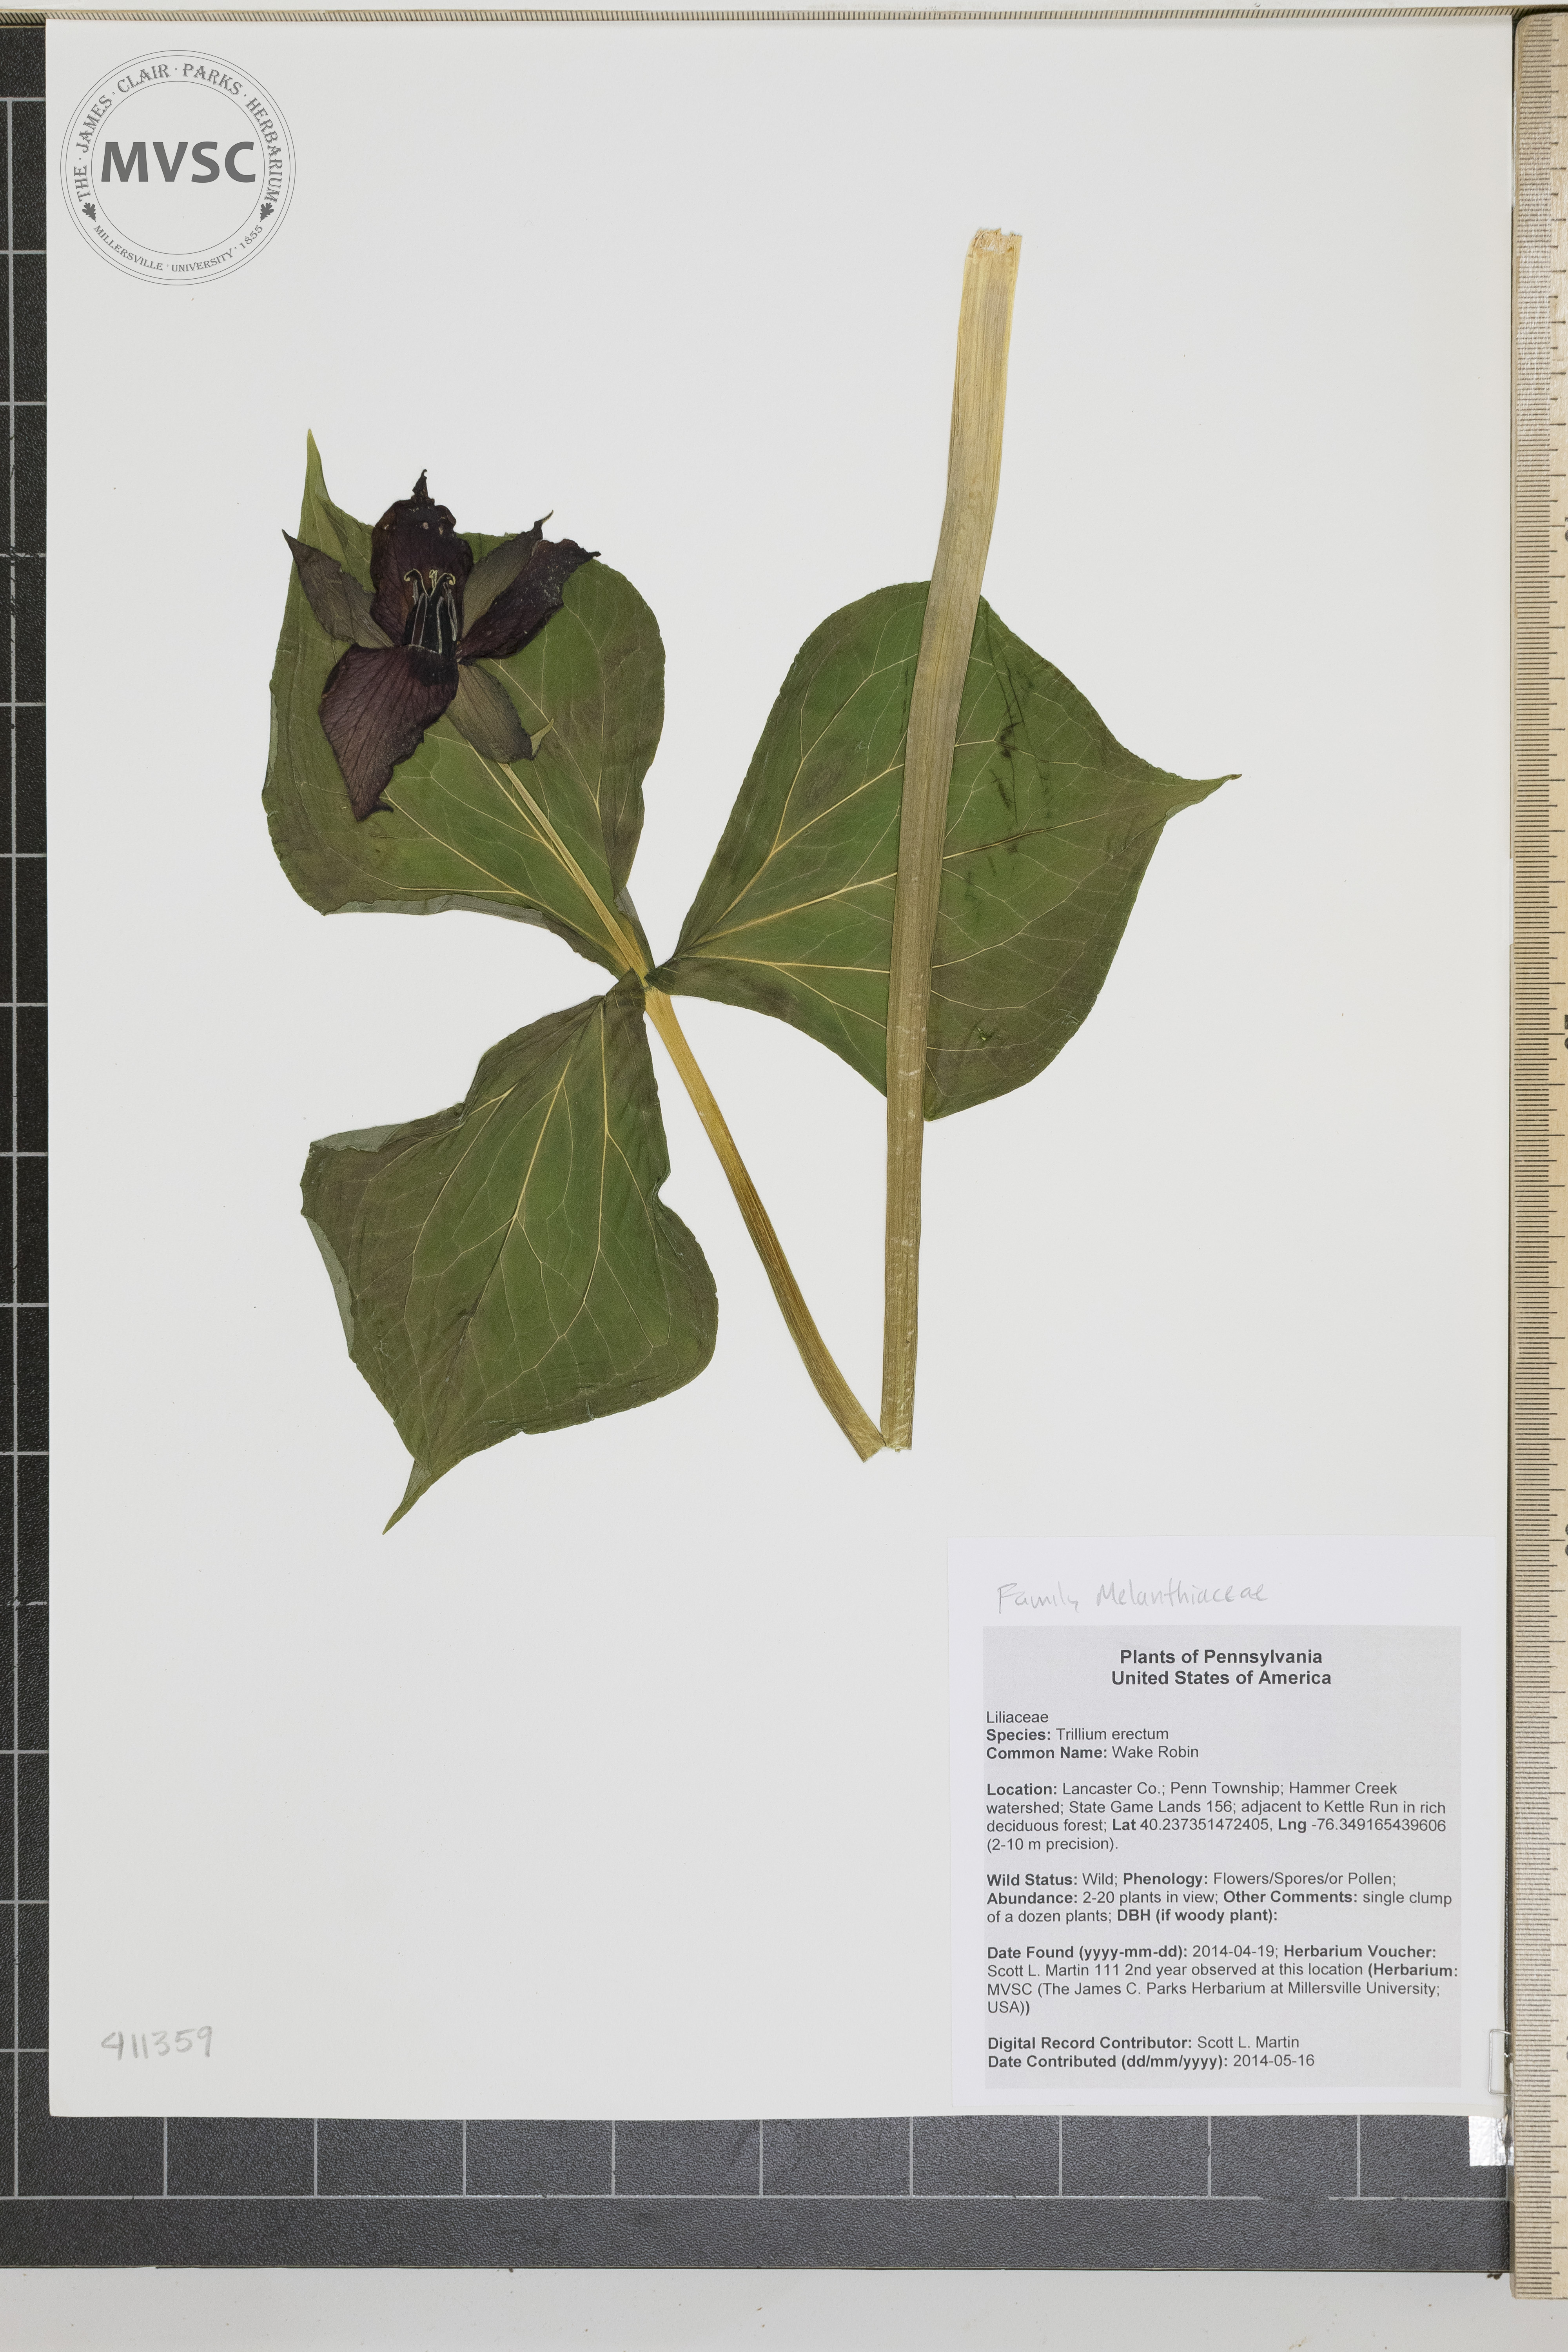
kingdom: Plantae
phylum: Tracheophyta
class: Liliopsida
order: Liliales
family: Melanthiaceae
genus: Trillium
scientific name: Trillium erectum
